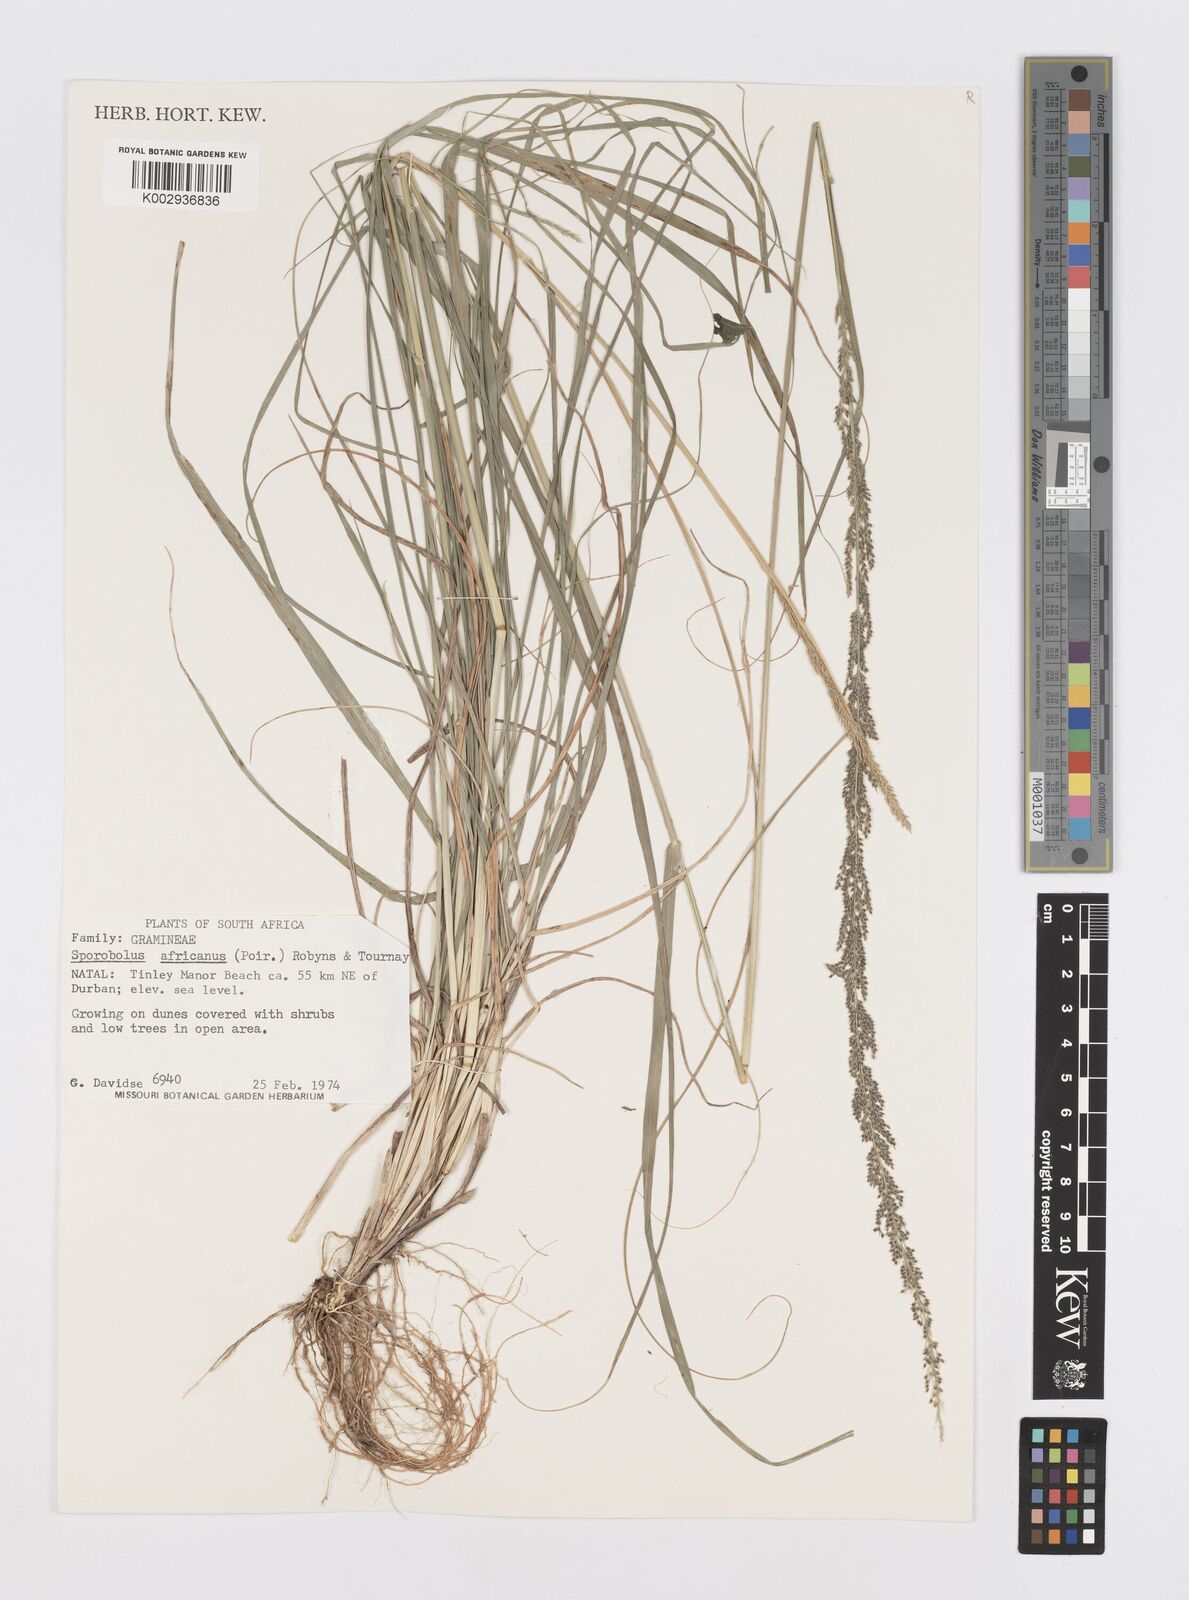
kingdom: Plantae
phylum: Tracheophyta
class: Liliopsida
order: Poales
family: Poaceae
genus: Sporobolus
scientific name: Sporobolus africanus
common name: African dropseed
